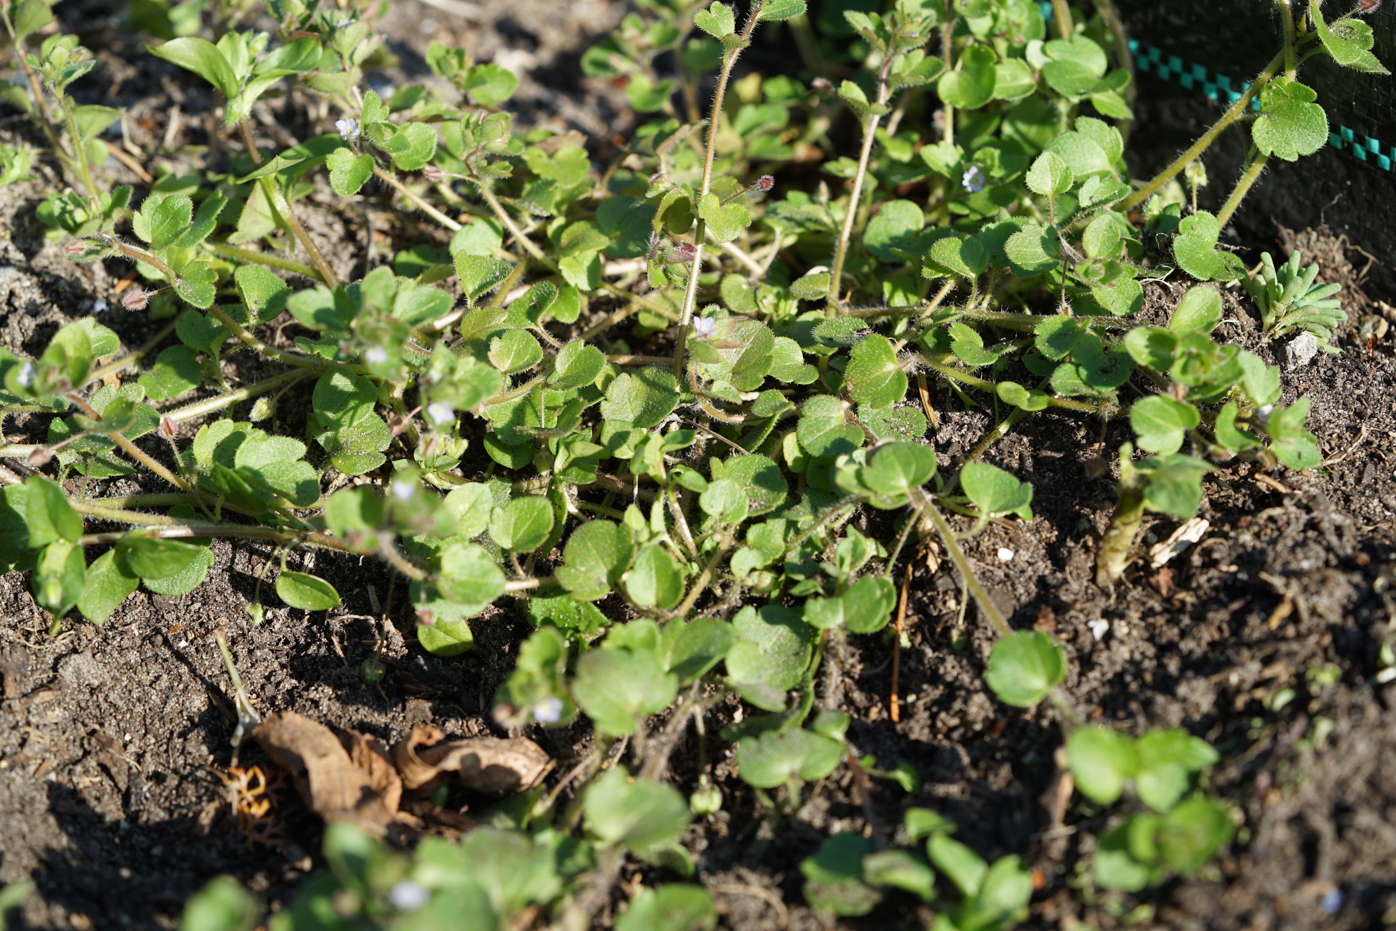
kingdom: Plantae
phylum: Tracheophyta
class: Magnoliopsida
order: Lamiales
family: Plantaginaceae
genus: Veronica
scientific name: Veronica sublobata
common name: False ivy-leaved speedwell
